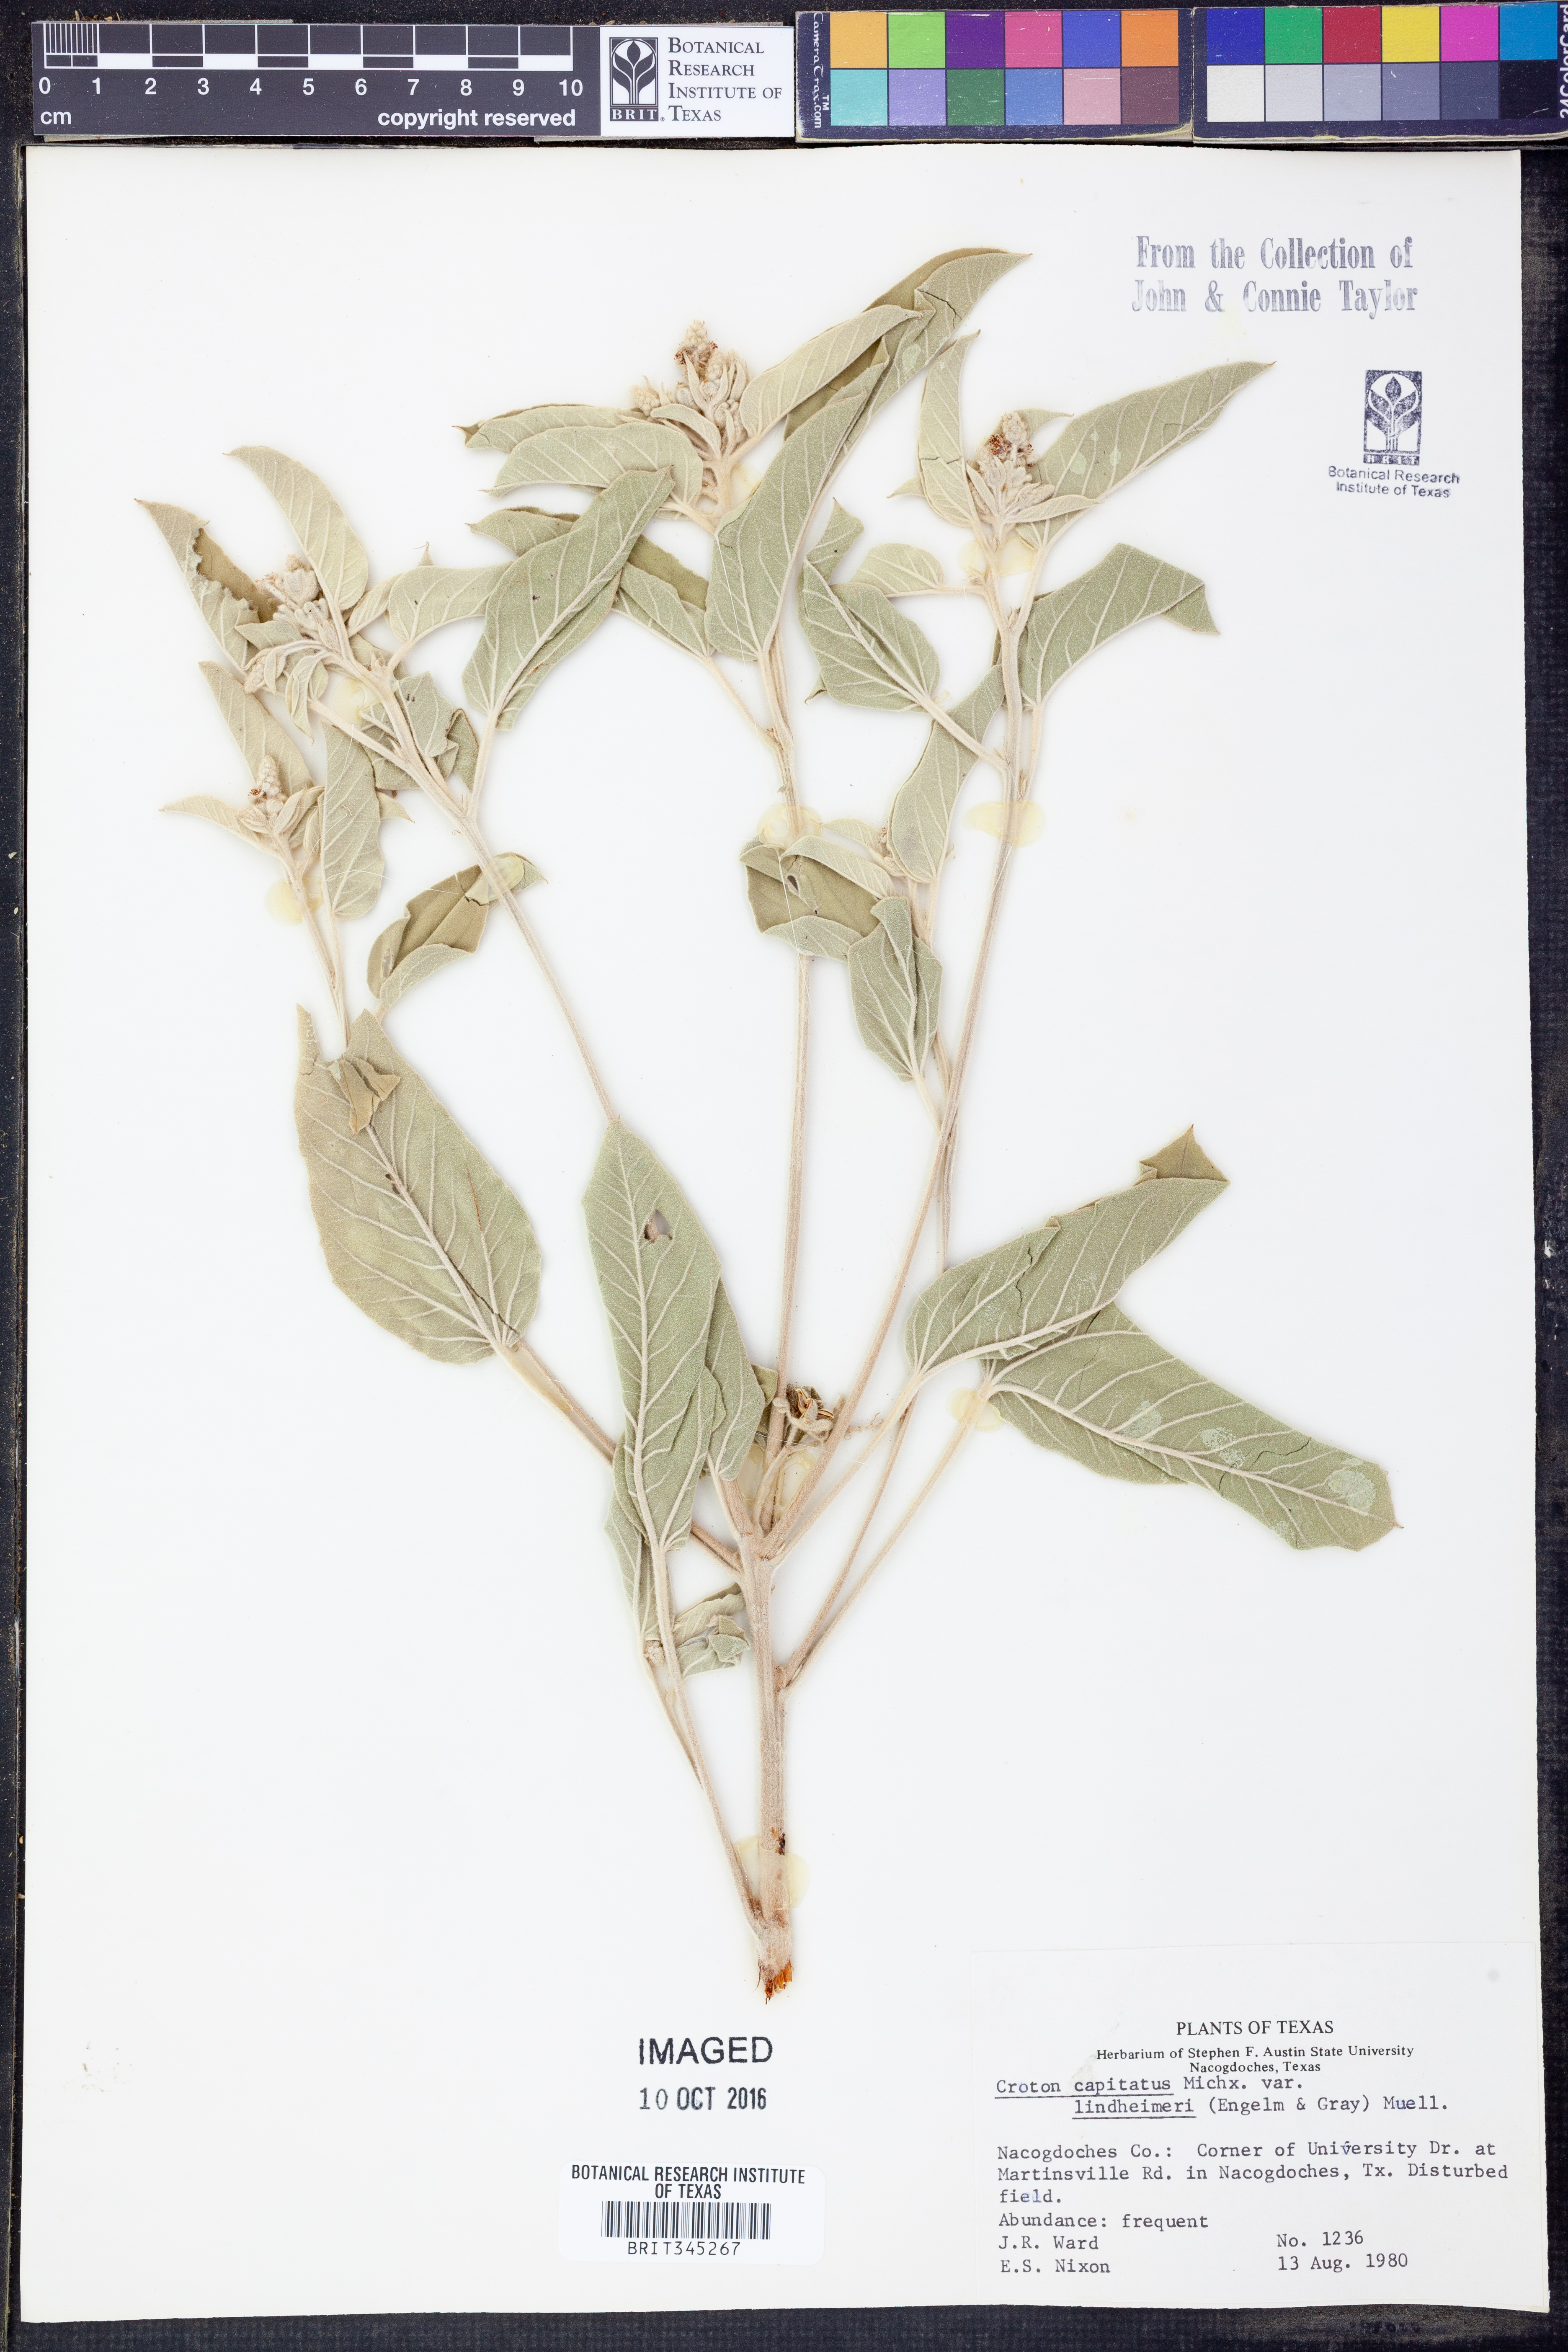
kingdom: Plantae
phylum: Tracheophyta
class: Magnoliopsida
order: Malpighiales
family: Euphorbiaceae
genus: Croton
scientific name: Croton lindheimeri
